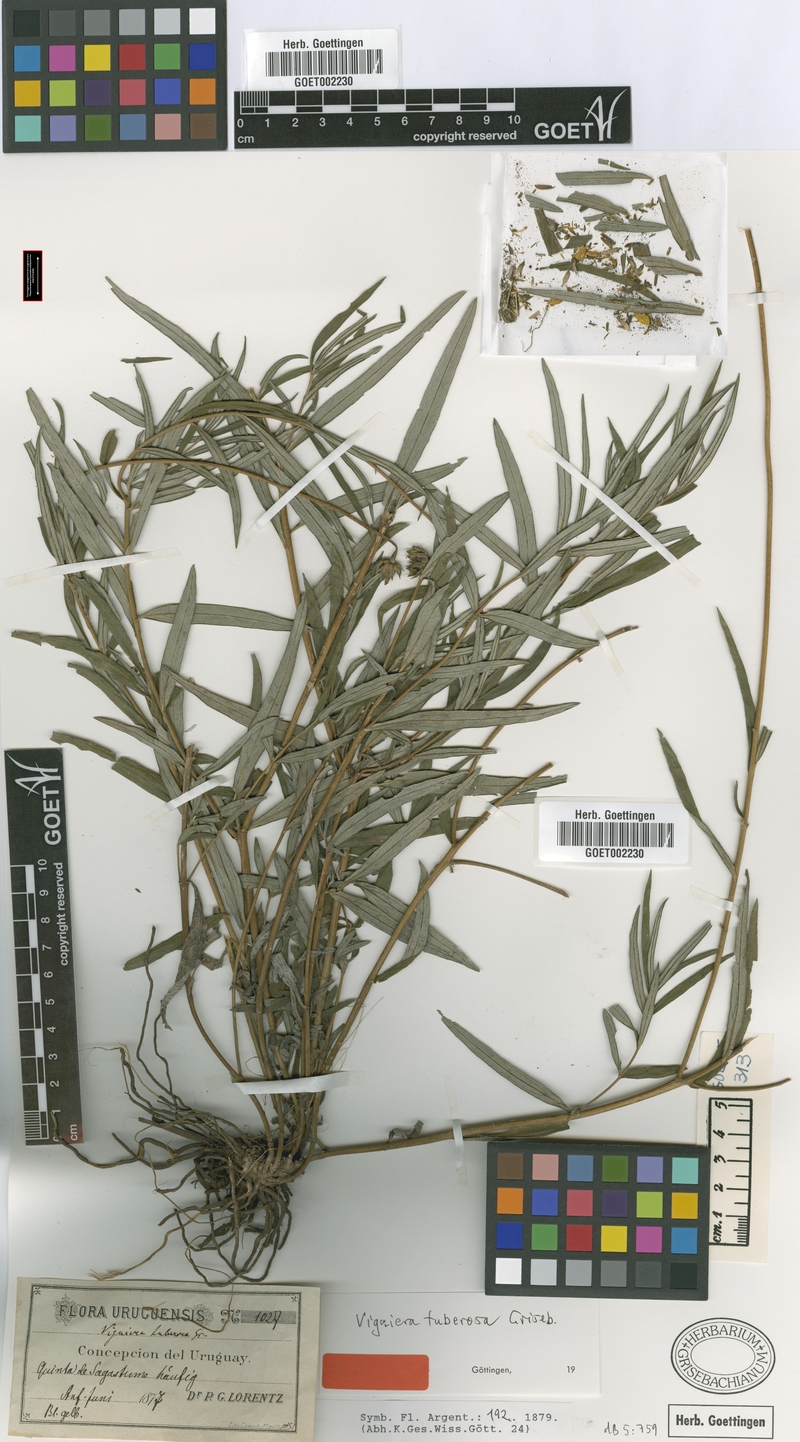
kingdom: Plantae
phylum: Tracheophyta
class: Magnoliopsida
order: Asterales
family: Asteraceae
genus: Aldama
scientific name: Aldama tuberosa
